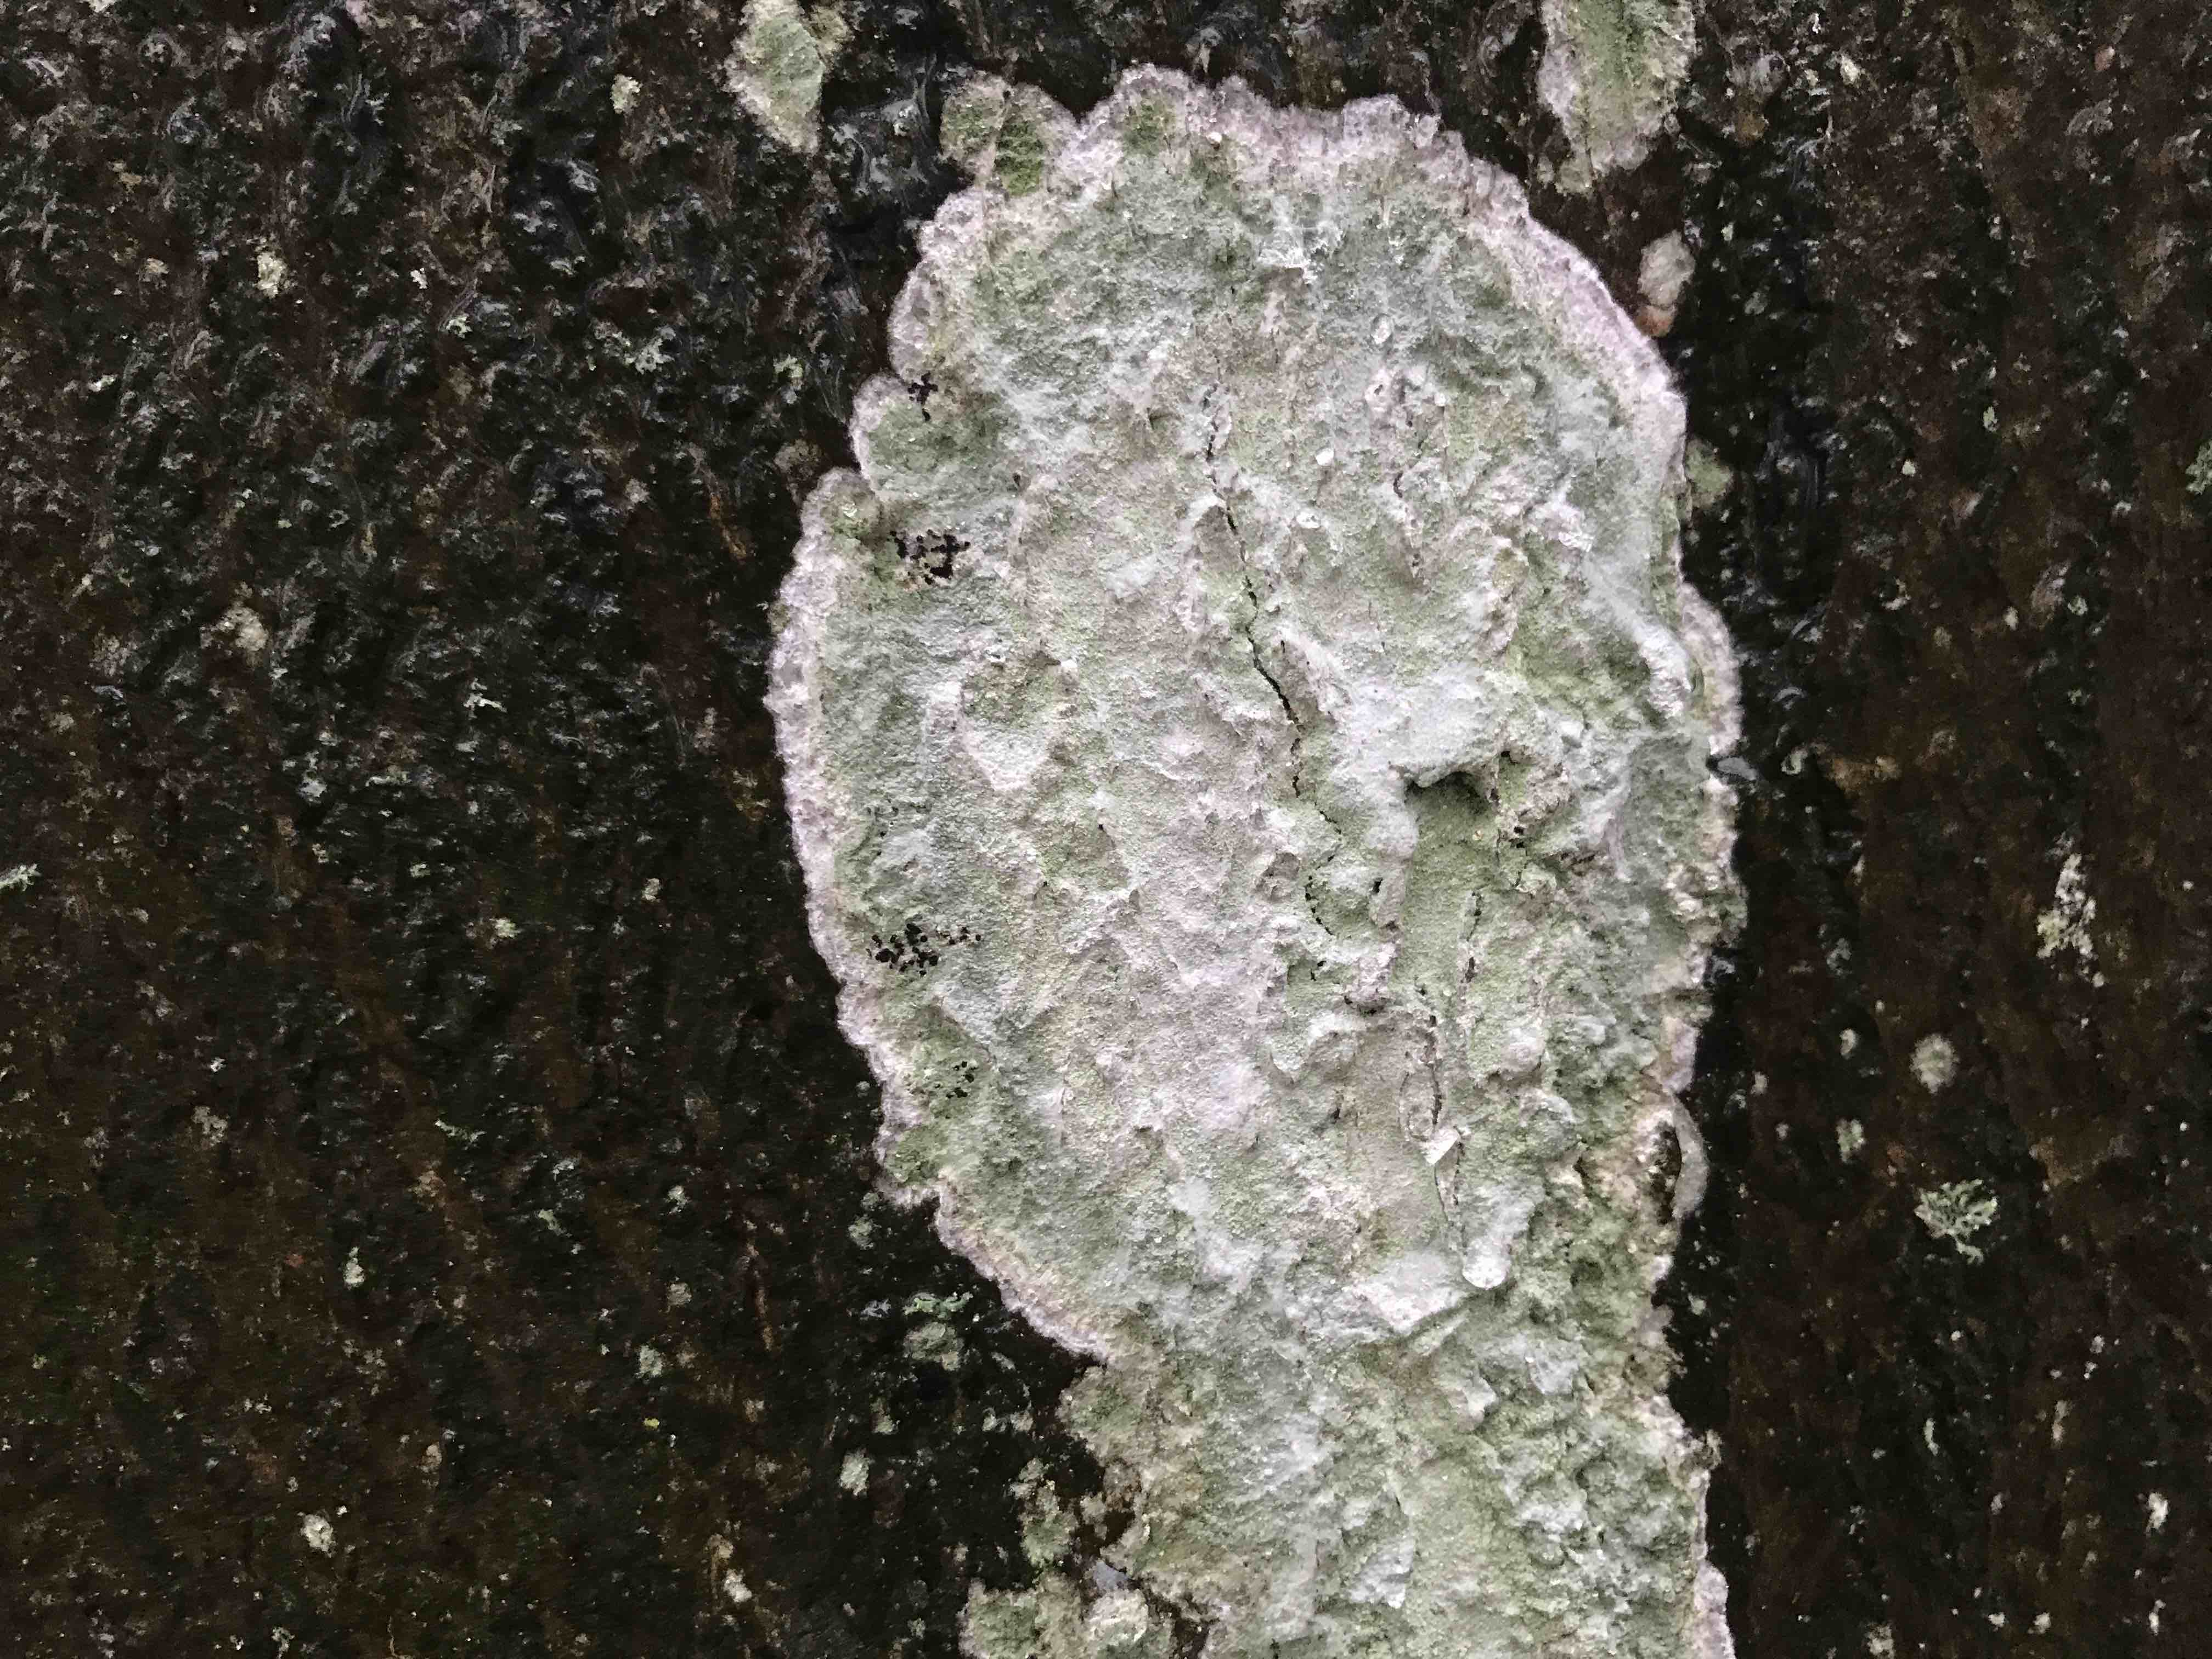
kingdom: Fungi
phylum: Ascomycota
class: Lecanoromycetes
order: Ostropales
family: Phlyctidaceae
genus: Phlyctis
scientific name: Phlyctis argena
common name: almindelig sølvlav
